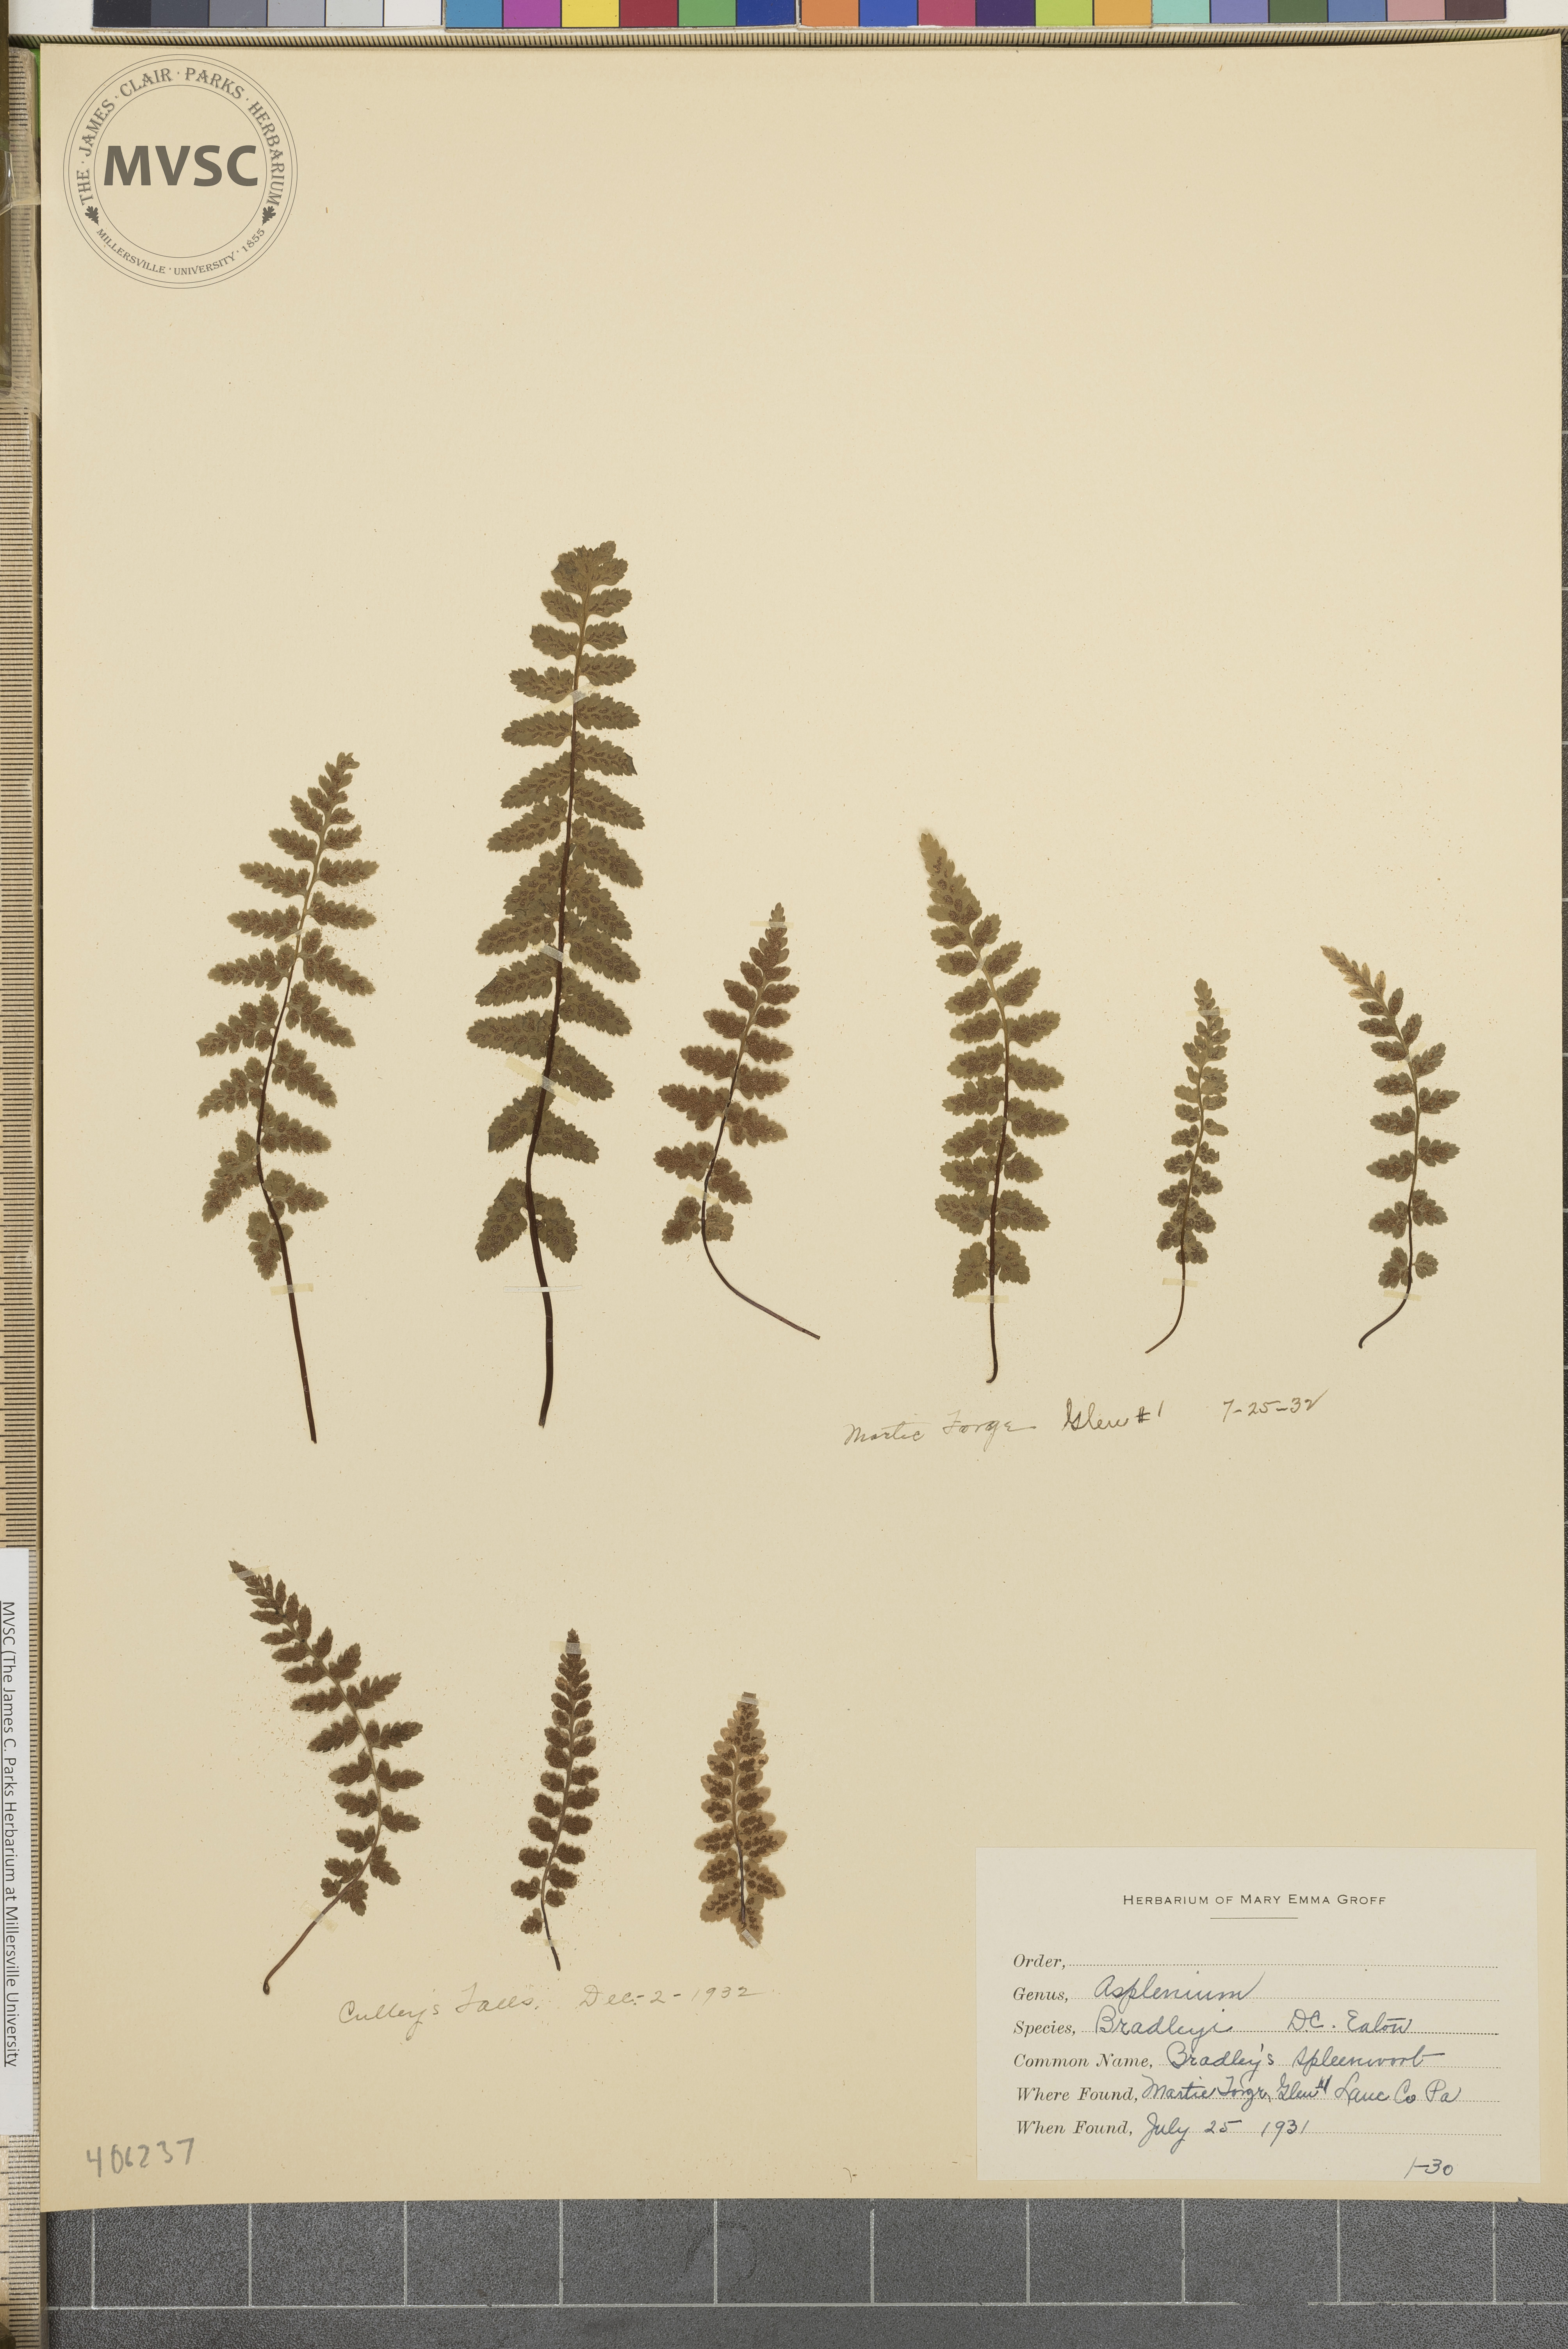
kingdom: Plantae
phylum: Tracheophyta
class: Polypodiopsida
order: Polypodiales
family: Aspleniaceae
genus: Asplenium
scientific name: Asplenium bradleyi
